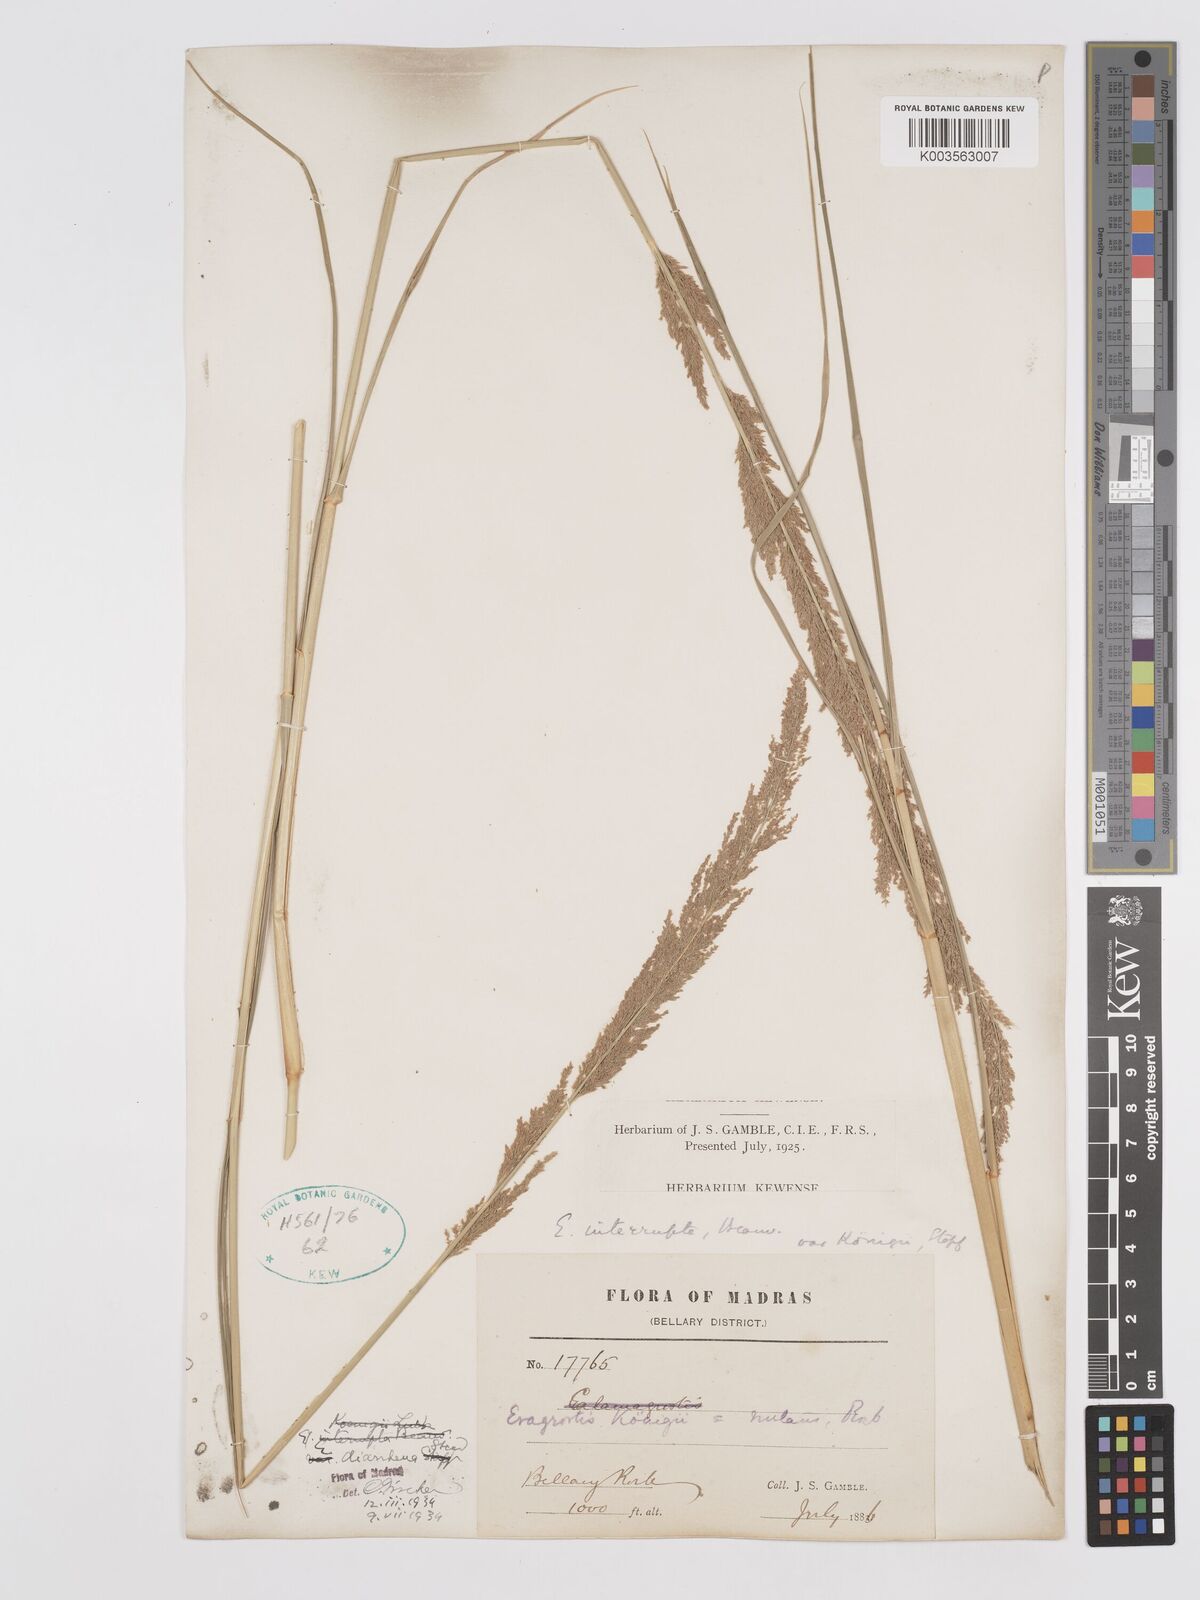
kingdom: Plantae
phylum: Tracheophyta
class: Liliopsida
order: Poales
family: Poaceae
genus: Eragrostis
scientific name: Eragrostis japonica
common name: Pond lovegrass
